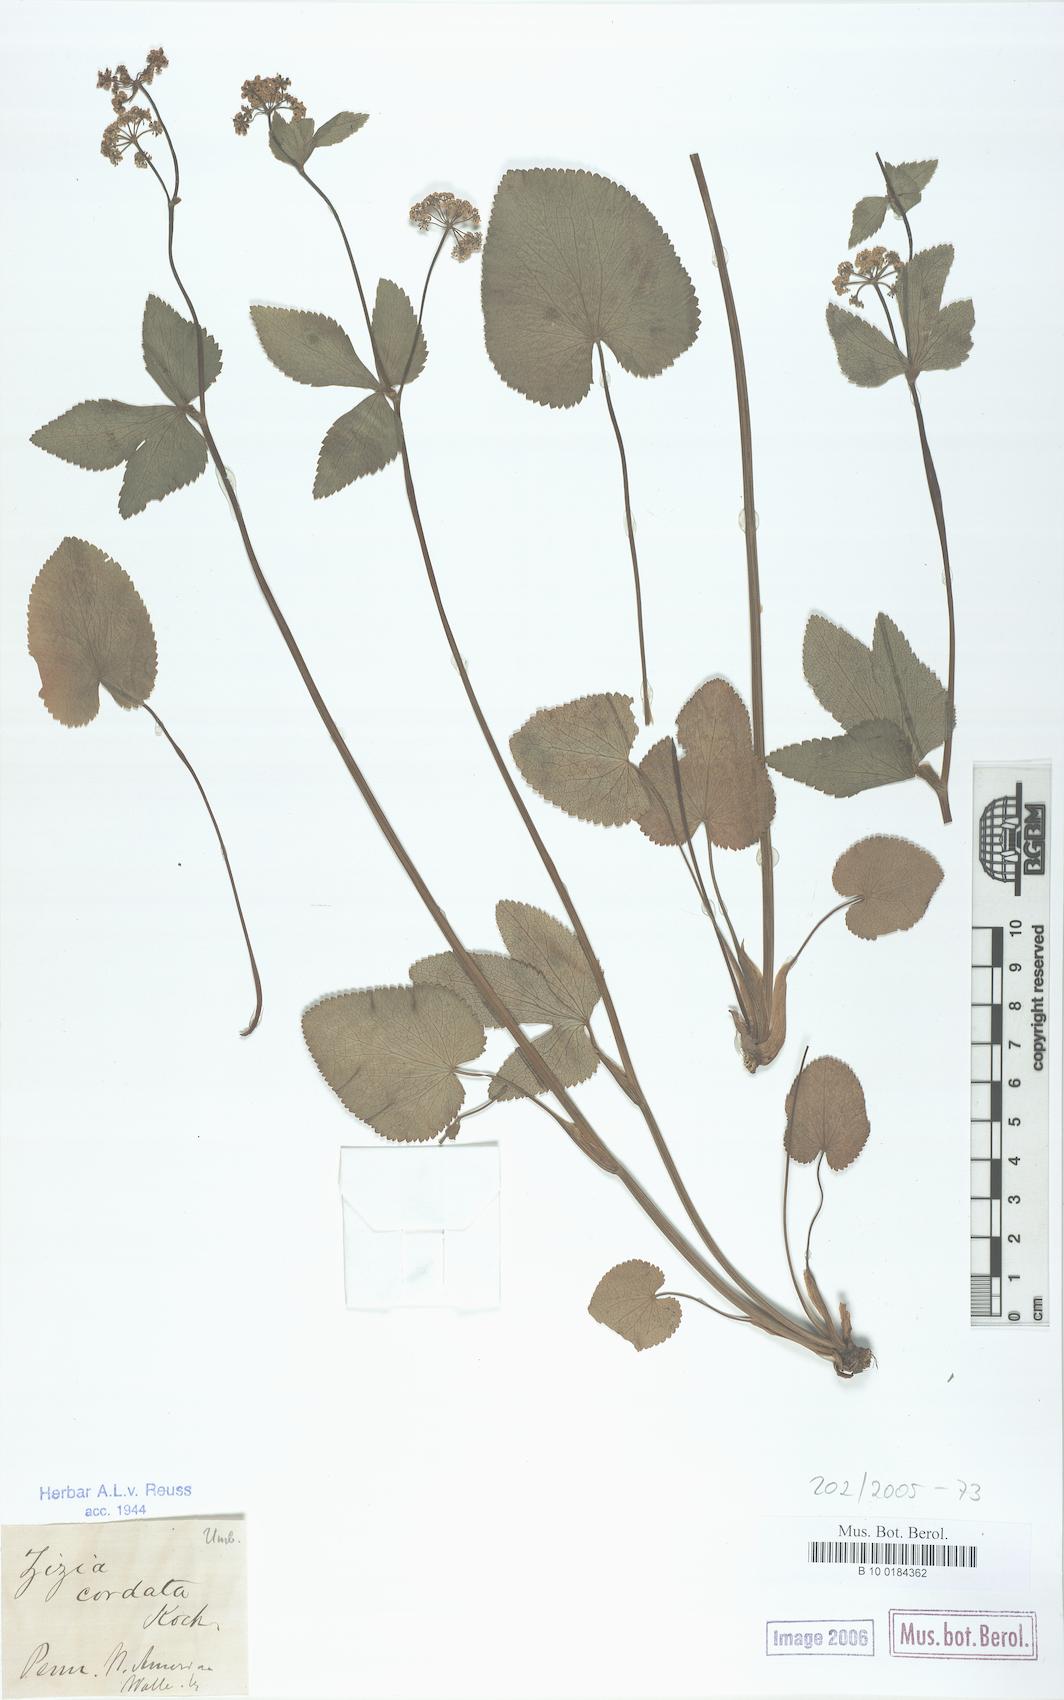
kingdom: Plantae
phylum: Tracheophyta
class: Magnoliopsida
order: Apiales
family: Apiaceae
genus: Zizia
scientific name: Zizia aptera
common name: Heart-leaved alexanders
